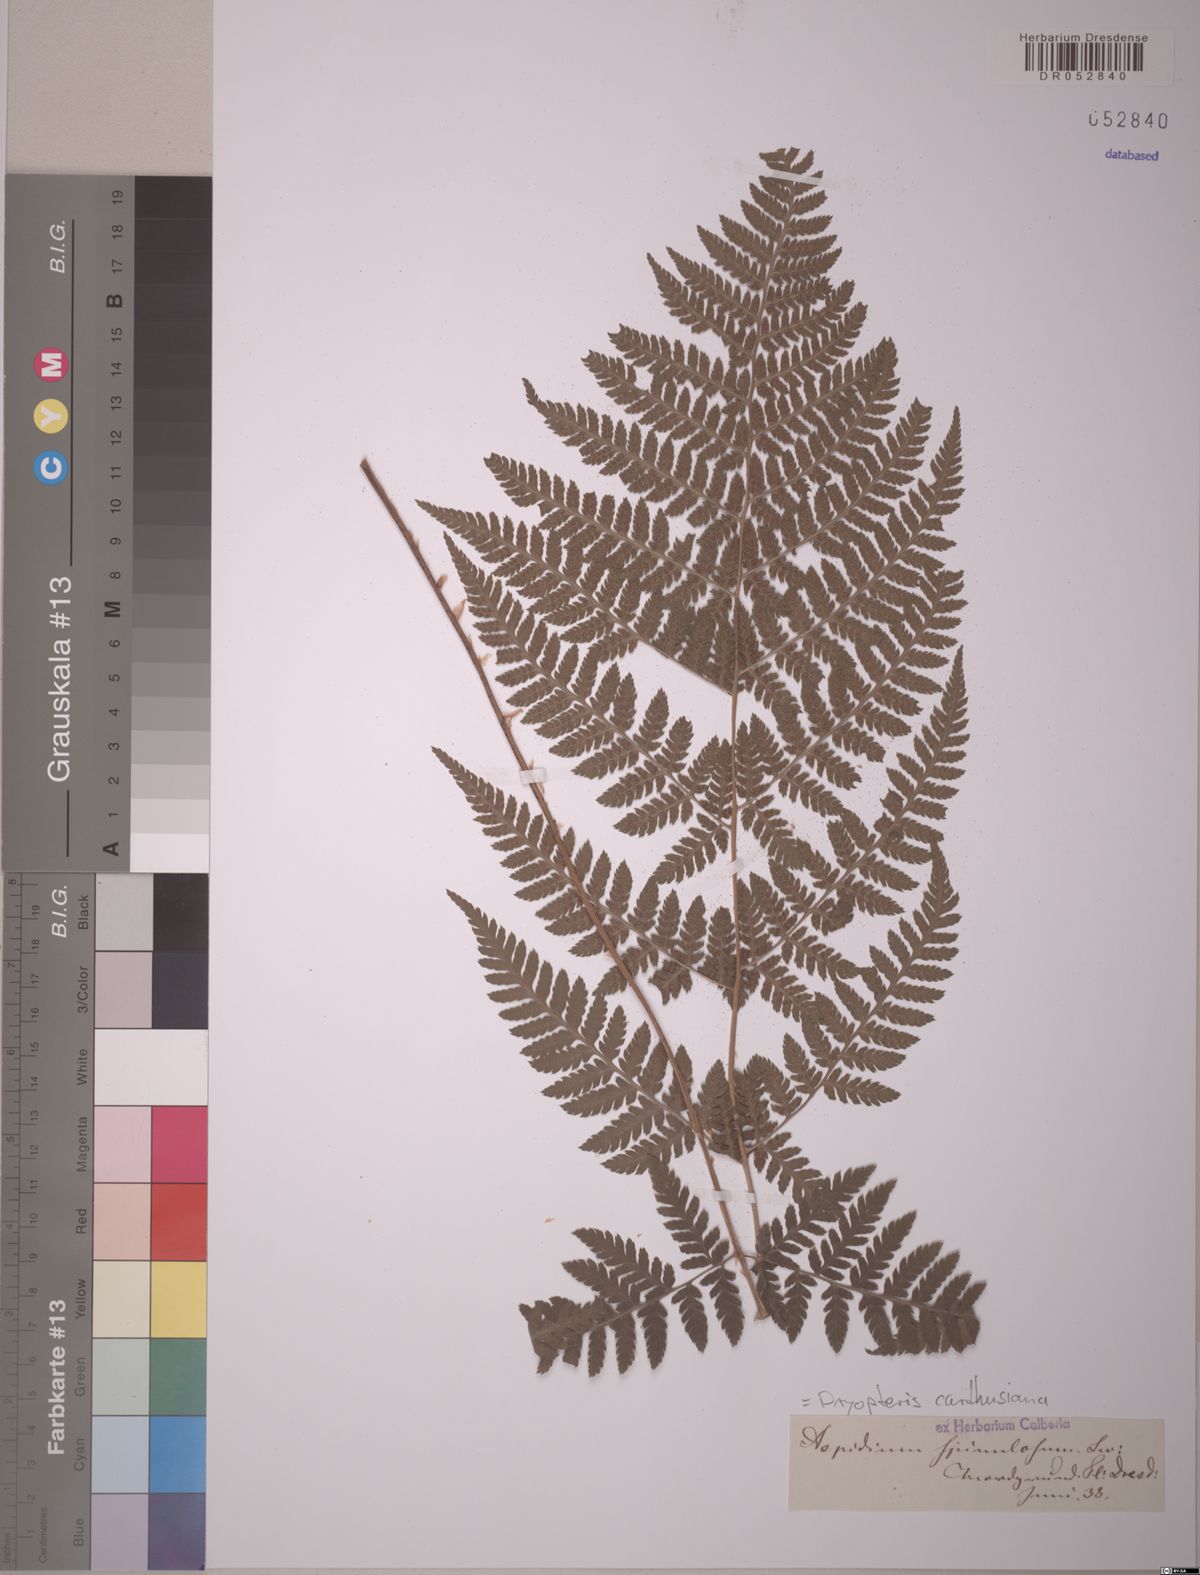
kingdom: Plantae
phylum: Tracheophyta
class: Polypodiopsida
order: Polypodiales
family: Dryopteridaceae
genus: Dryopteris
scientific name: Dryopteris carthusiana
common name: Narrow buckler-fern
